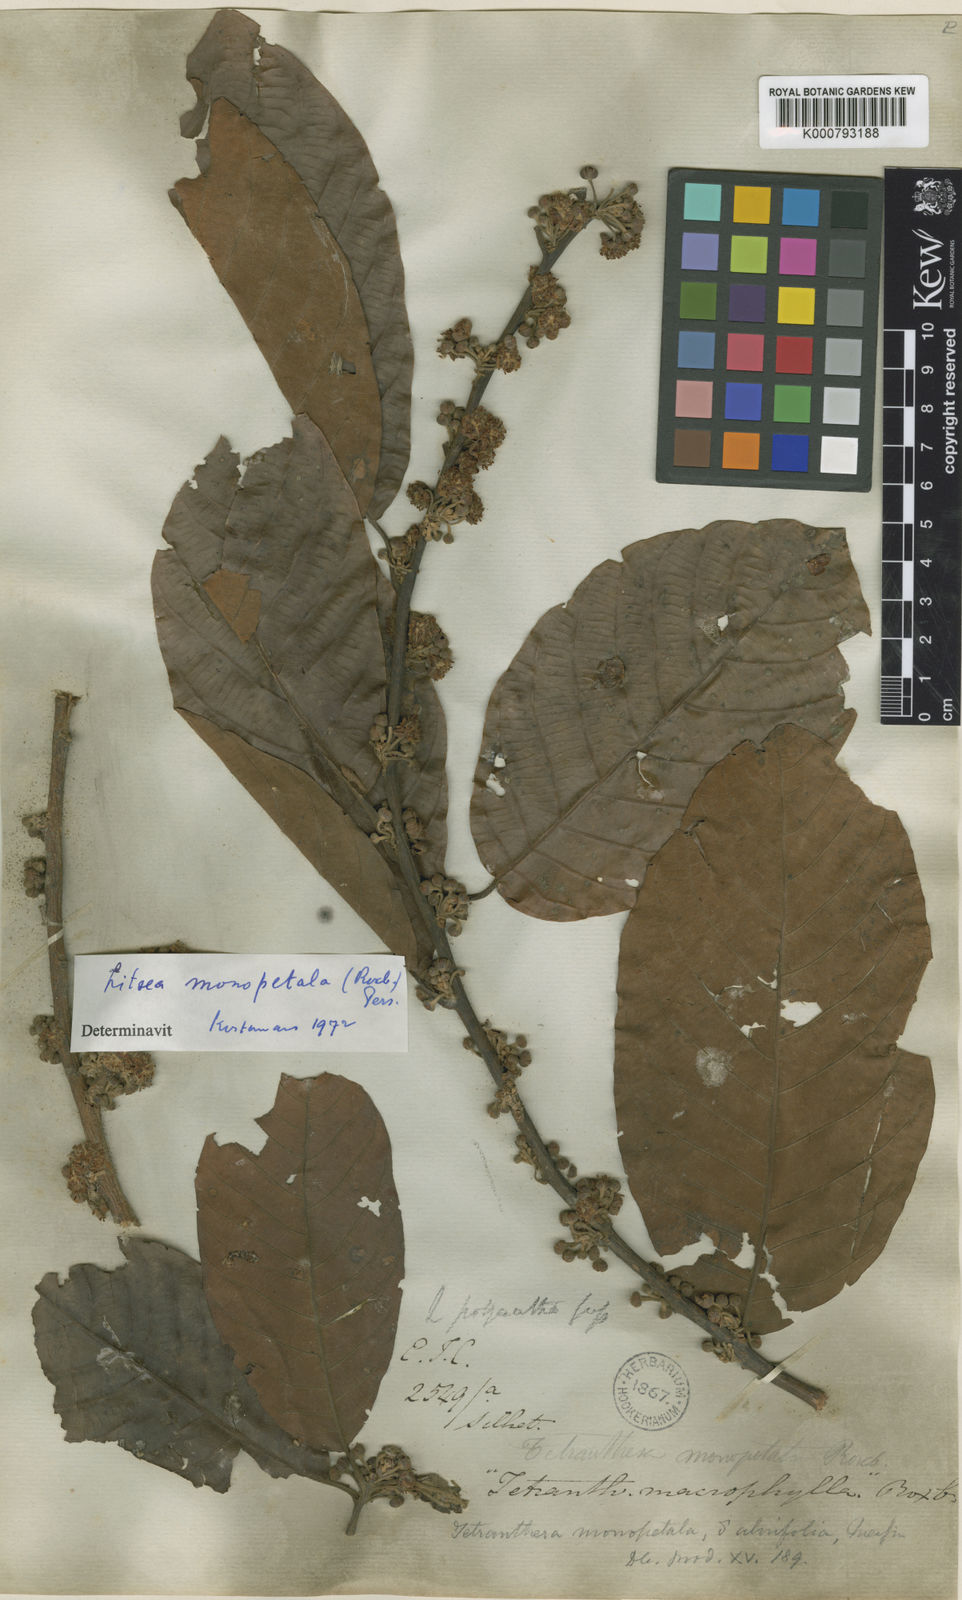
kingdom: Plantae
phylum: Tracheophyta
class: Magnoliopsida
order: Laurales
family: Lauraceae
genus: Litsea
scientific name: Litsea monopetala
